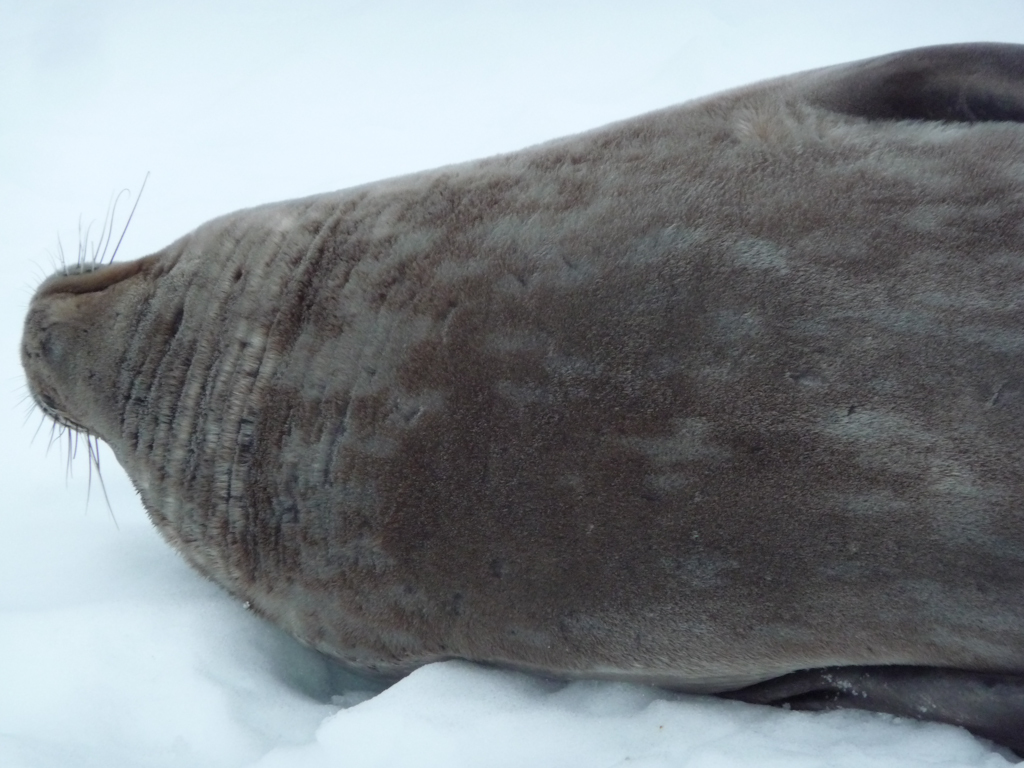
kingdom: Animalia
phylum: Chordata
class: Mammalia
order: Carnivora
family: Phocidae
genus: Leptonychotes
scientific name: Leptonychotes weddellii
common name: Weddell Seal
